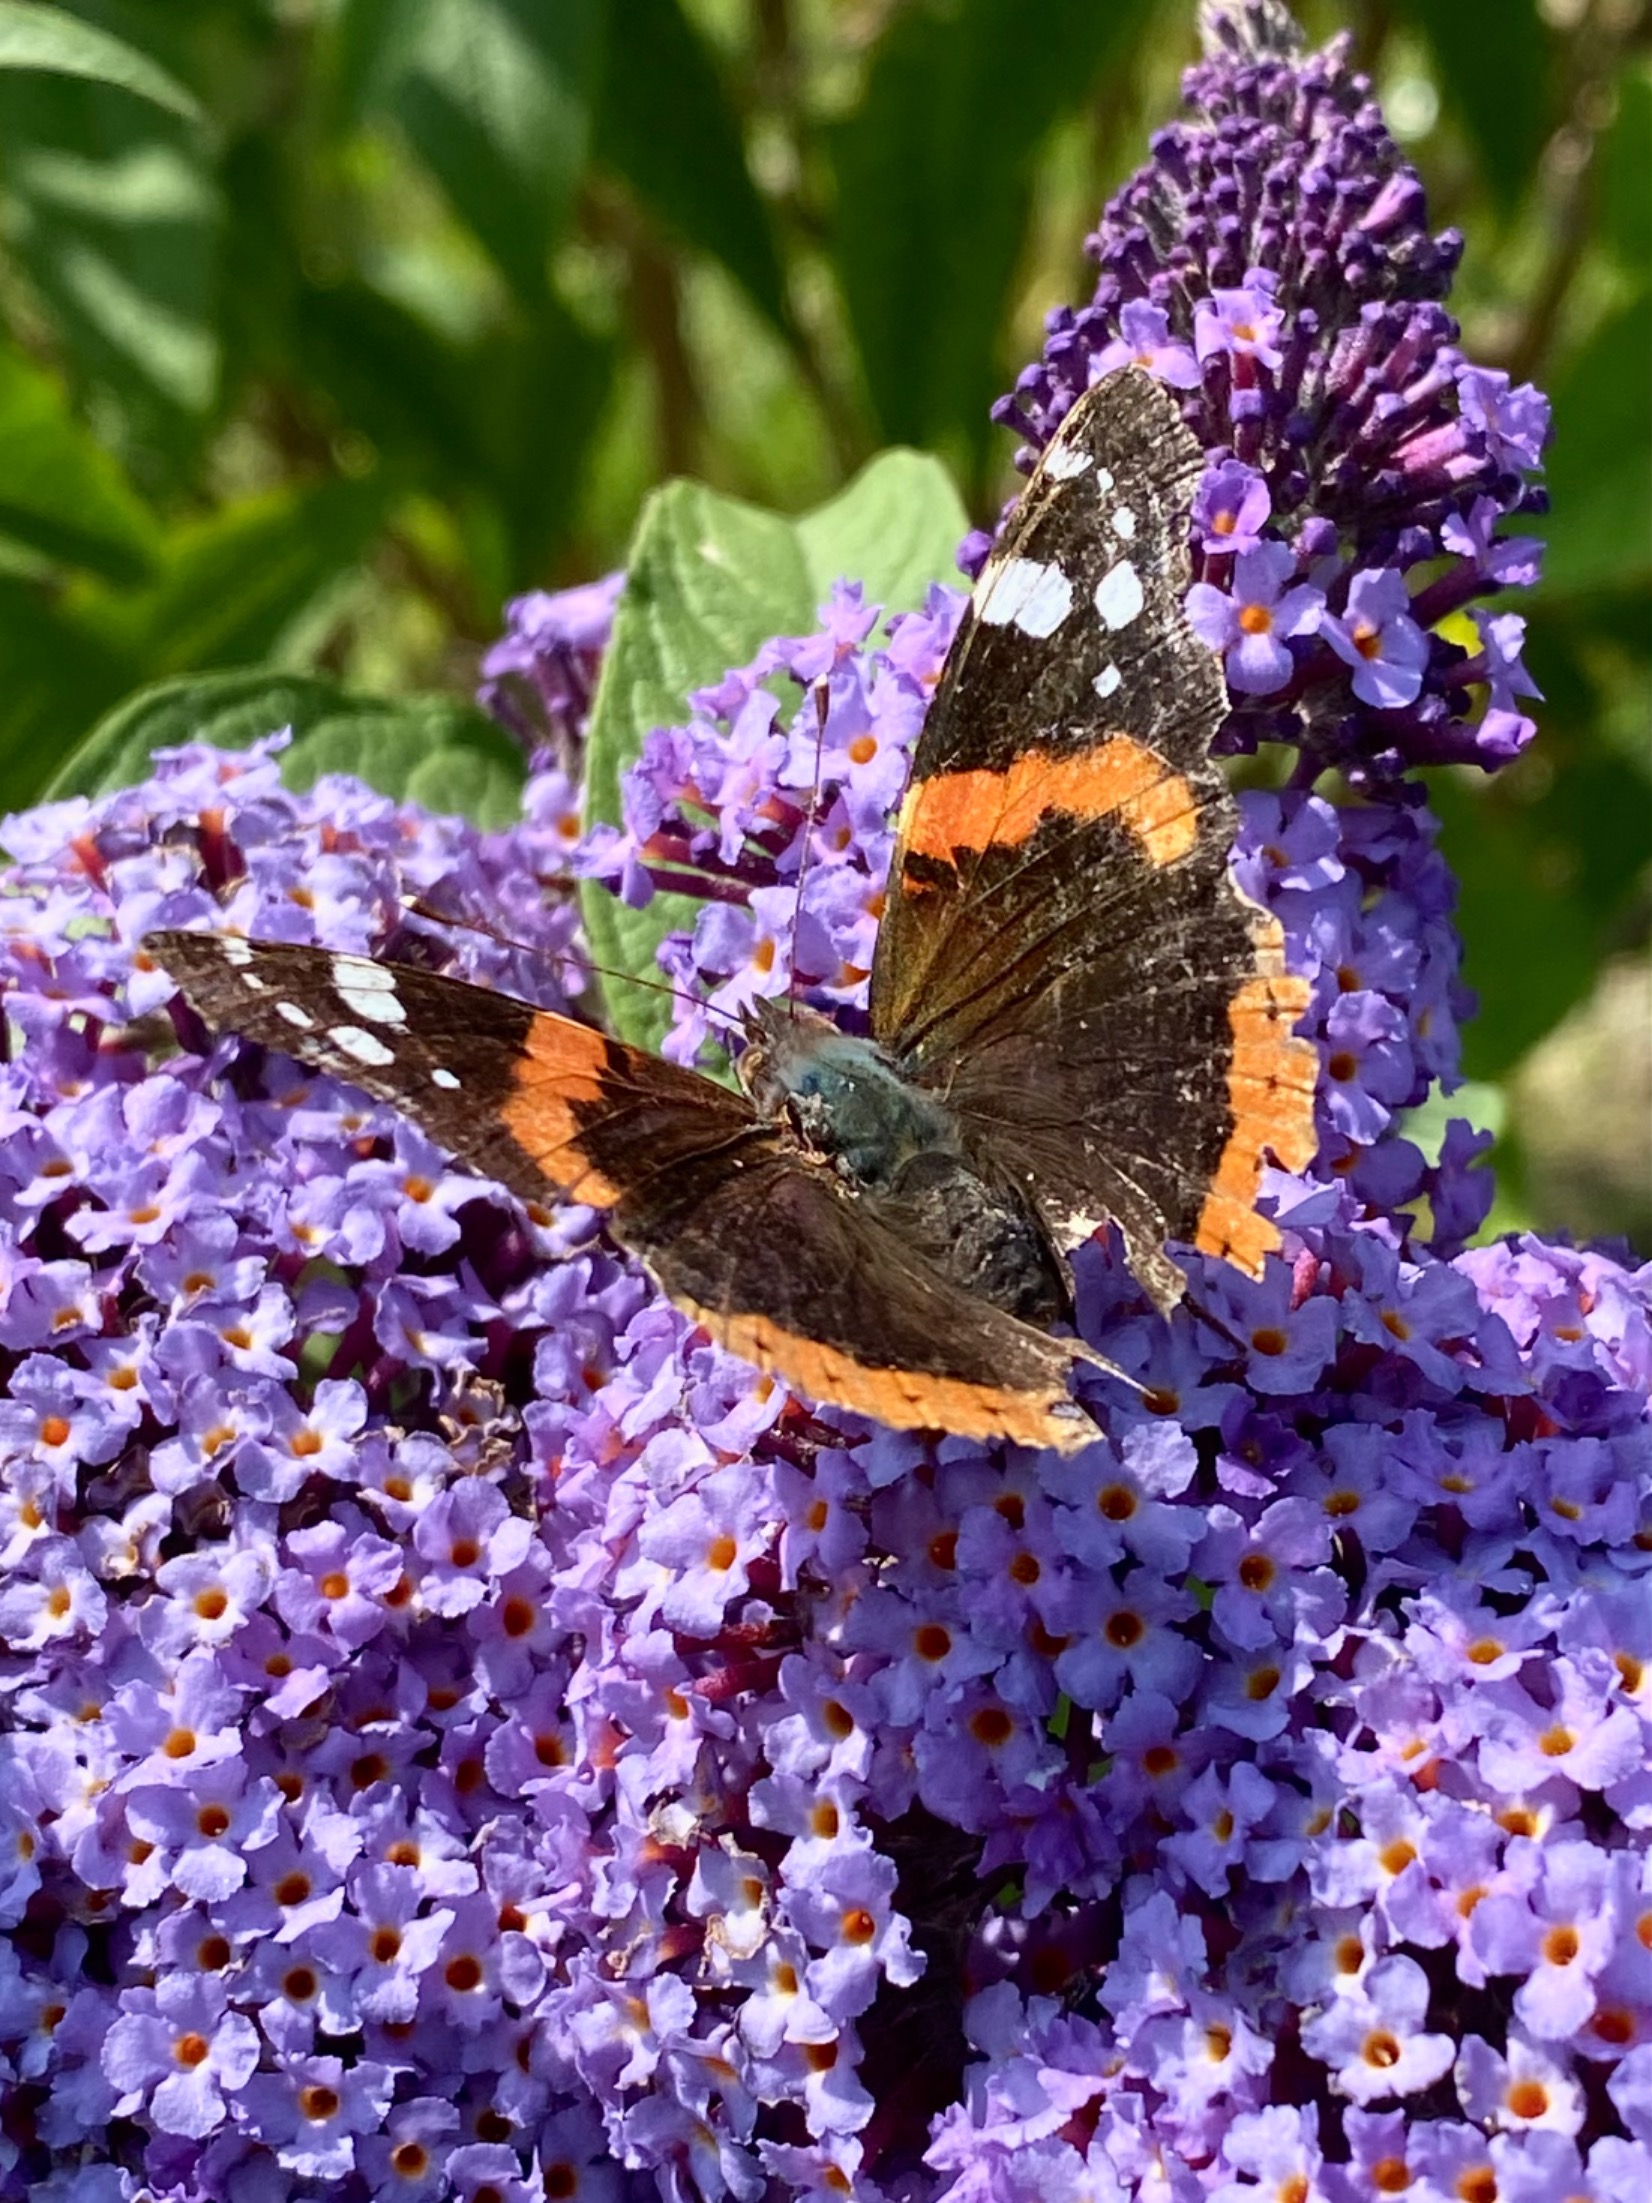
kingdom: Animalia
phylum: Arthropoda
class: Insecta
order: Lepidoptera
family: Nymphalidae
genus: Vanessa
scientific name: Vanessa atalanta
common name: Admiral
